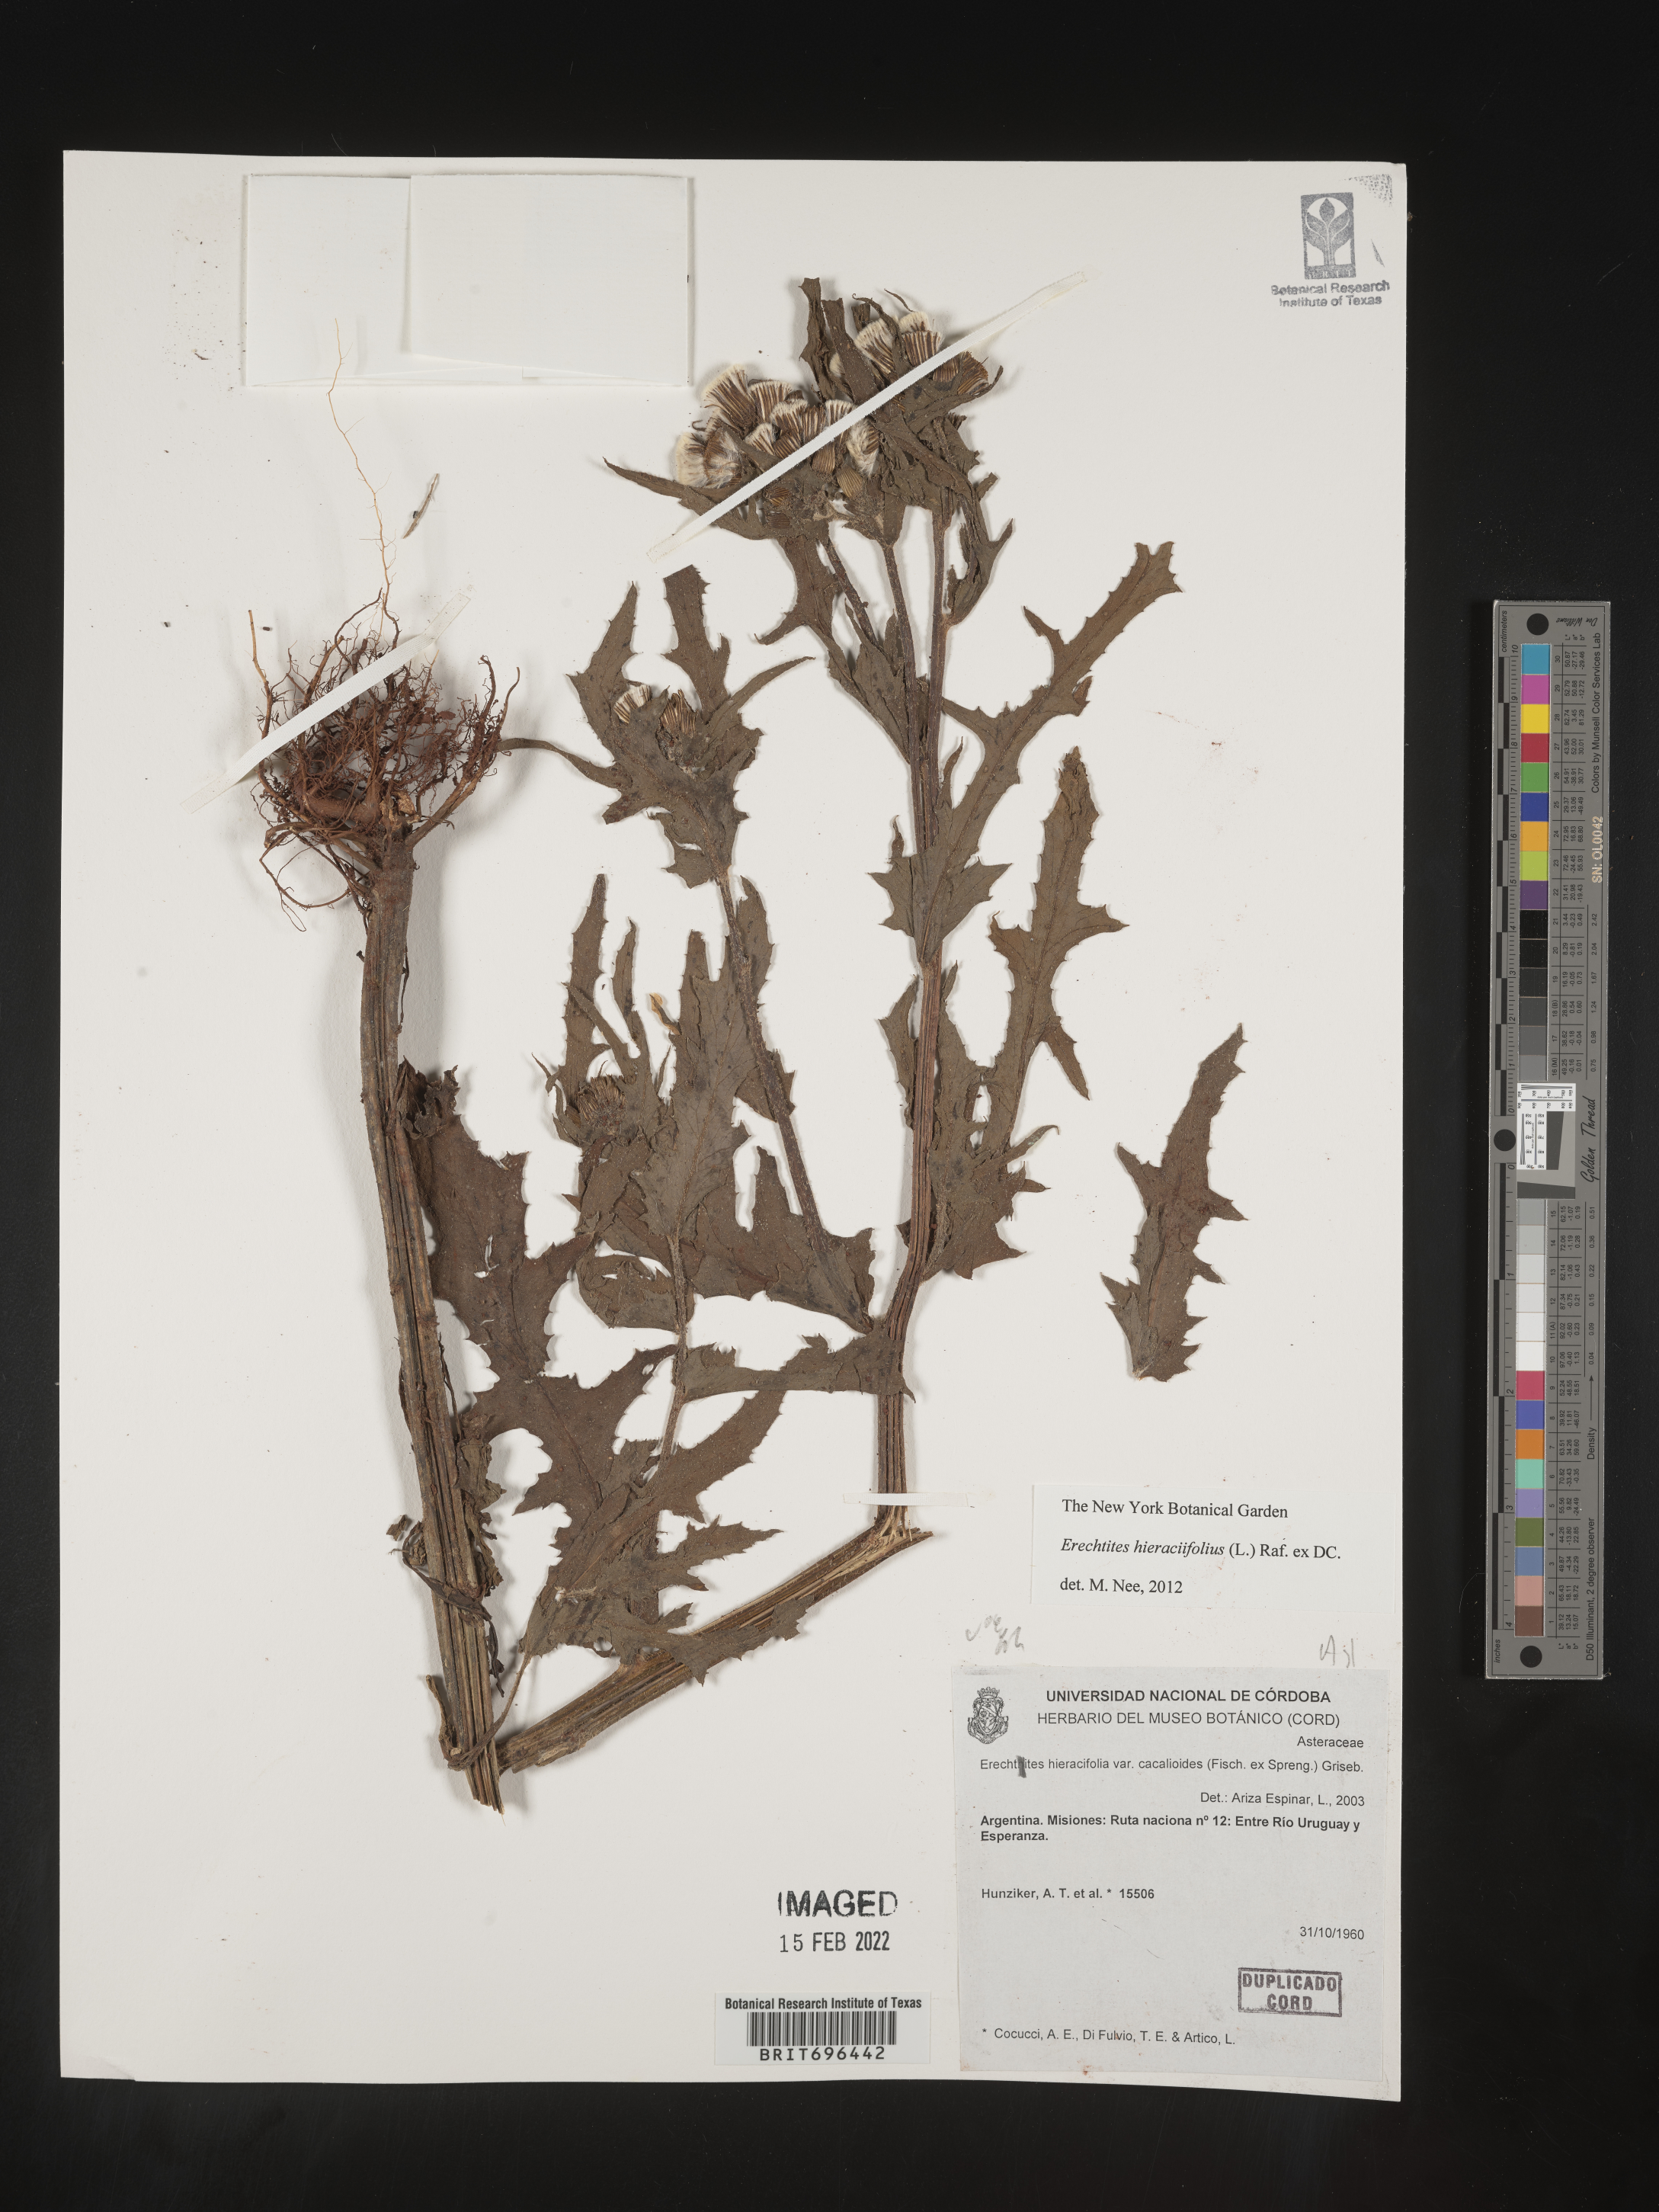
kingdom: Plantae
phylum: Tracheophyta
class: Magnoliopsida
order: Asterales
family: Asteraceae
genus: Erechtites
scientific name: Erechtites
